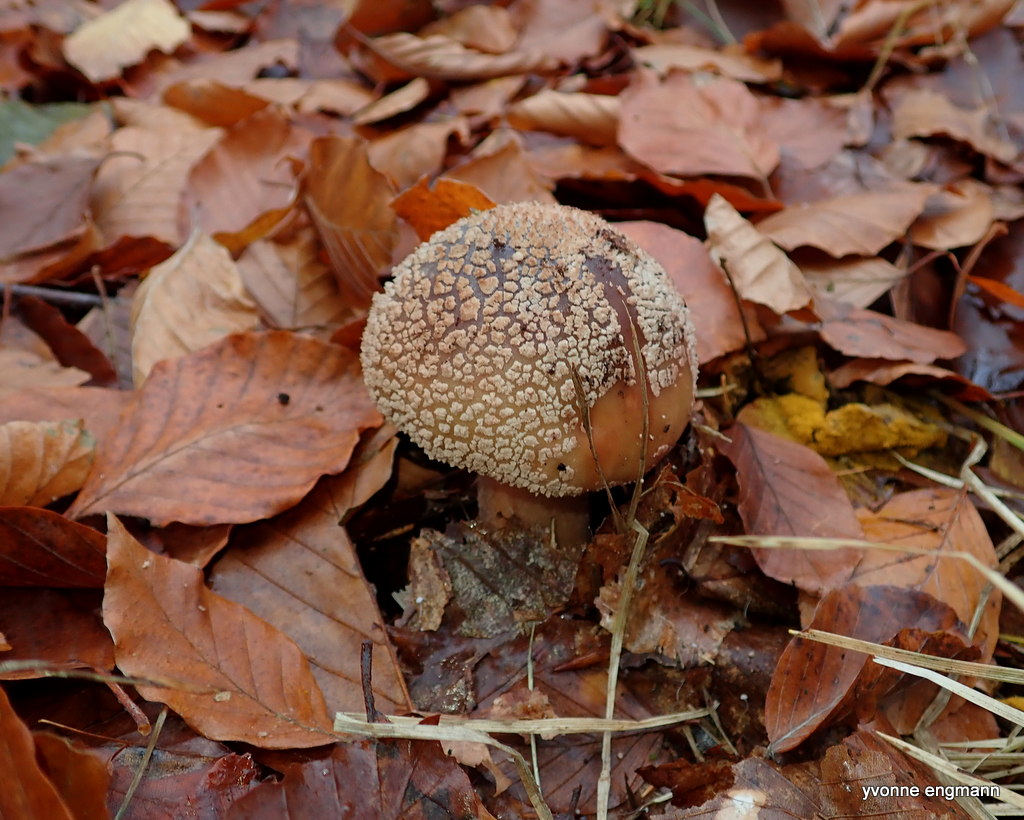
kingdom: Fungi
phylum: Basidiomycota
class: Agaricomycetes
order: Agaricales
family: Amanitaceae
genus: Amanita
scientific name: Amanita rubescens
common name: rødmende fluesvamp
